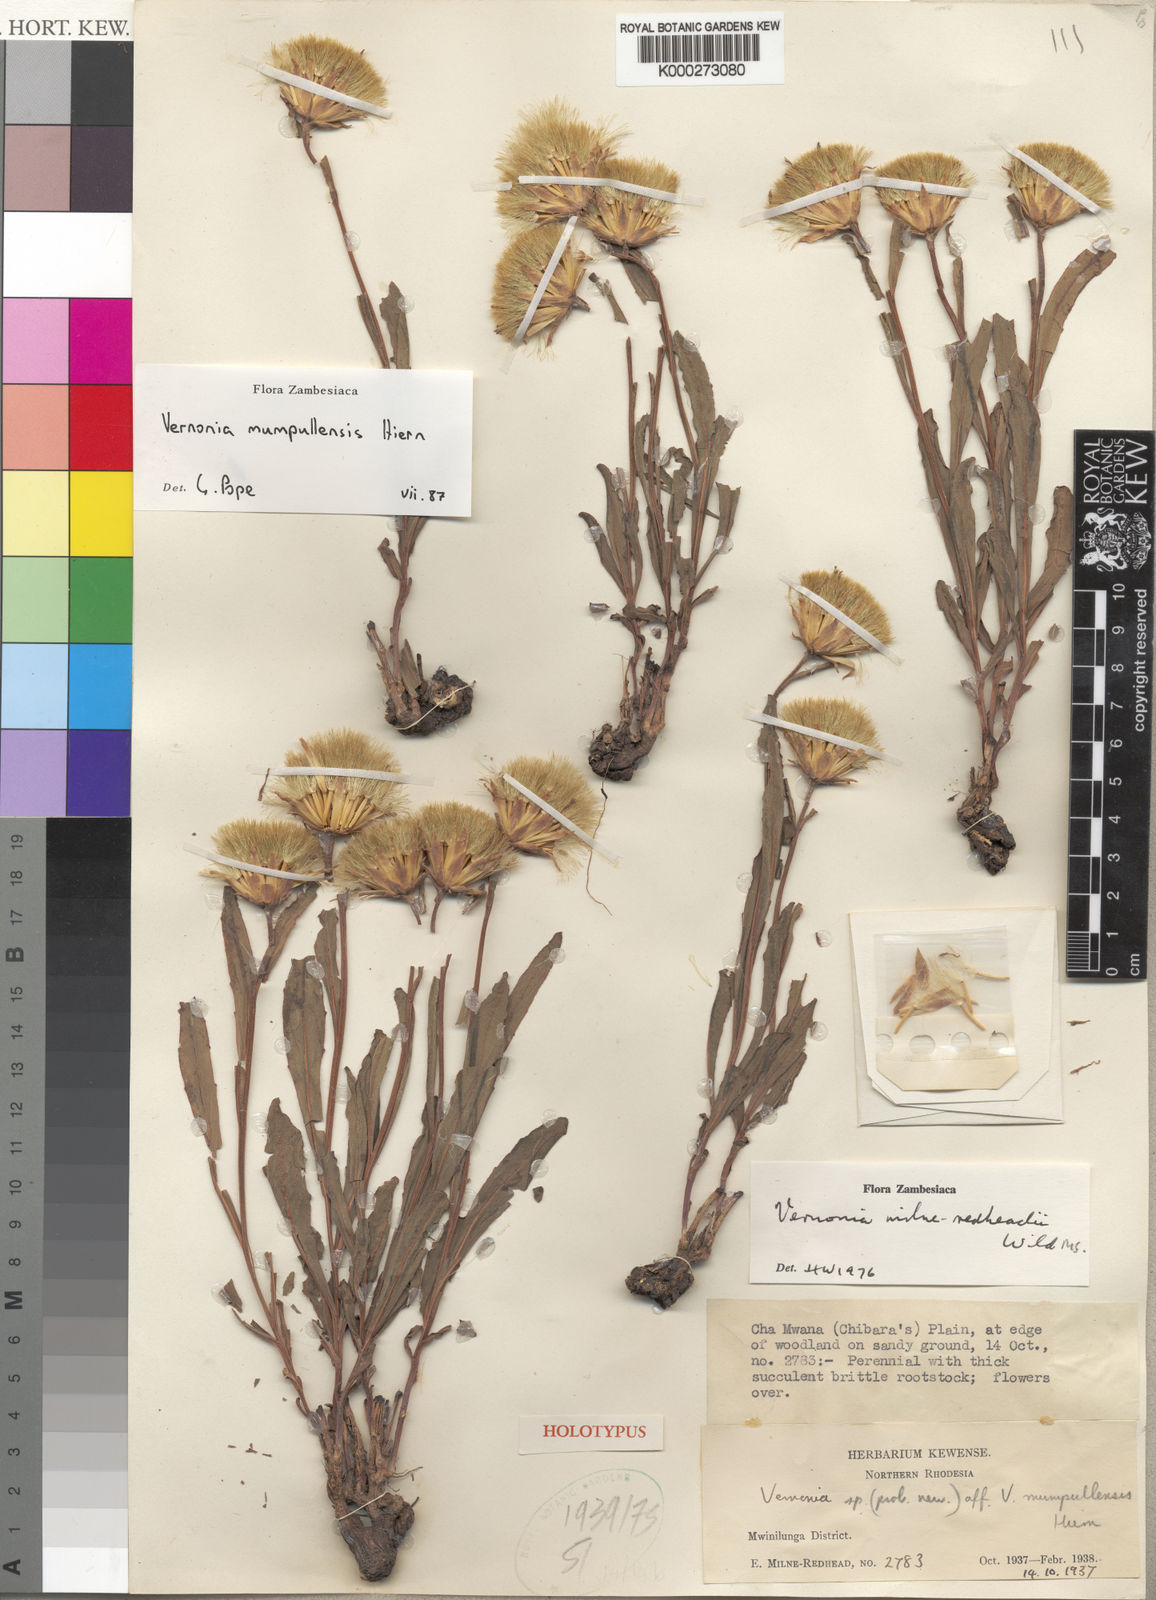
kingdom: Plantae
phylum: Tracheophyta
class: Magnoliopsida
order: Asterales
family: Asteraceae
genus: Vernonia
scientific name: Vernonia mumpullensis
